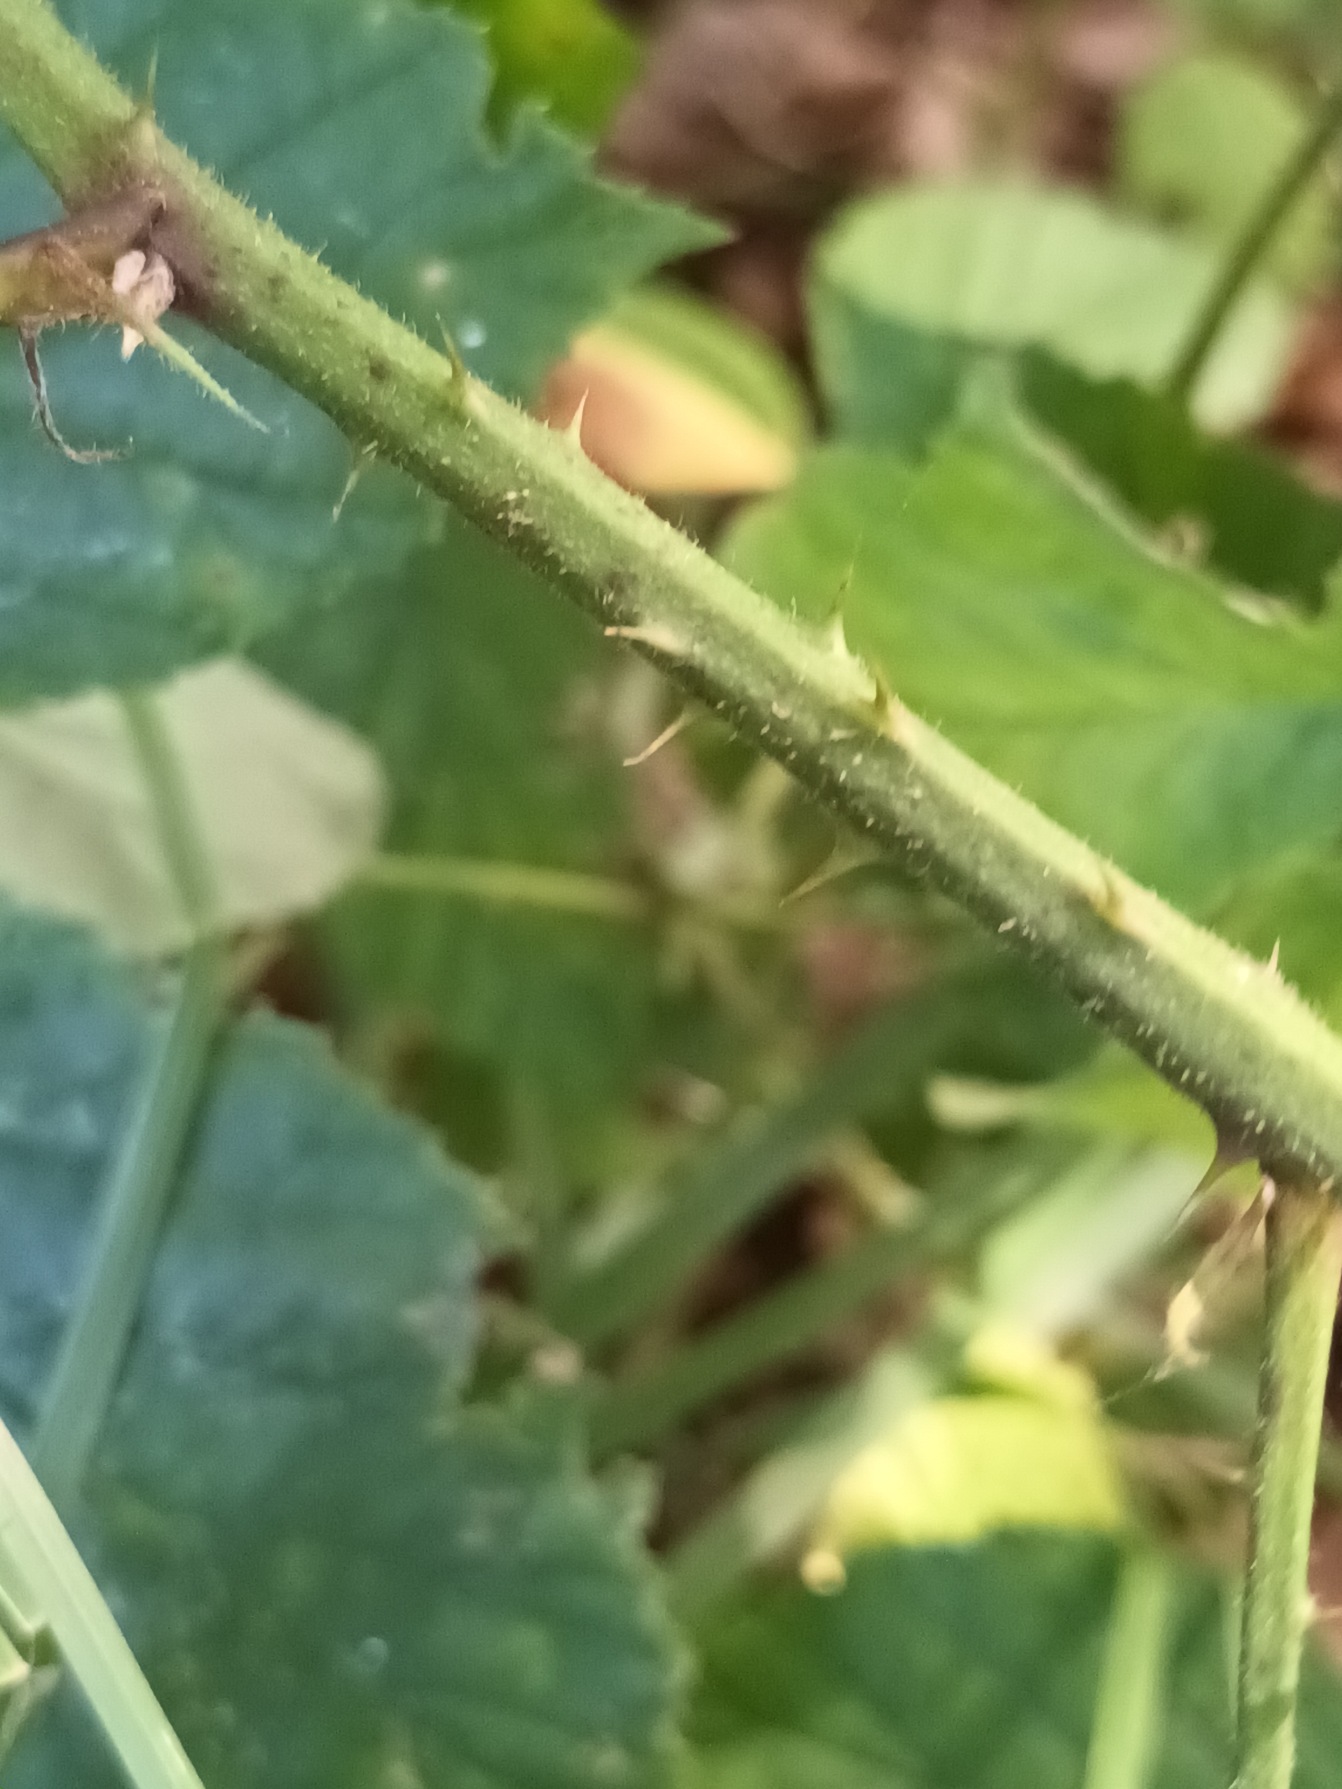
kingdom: Plantae
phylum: Tracheophyta
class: Magnoliopsida
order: Rosales
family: Rosaceae
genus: Rubus
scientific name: Rubus radula
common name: Rasperu brombær
